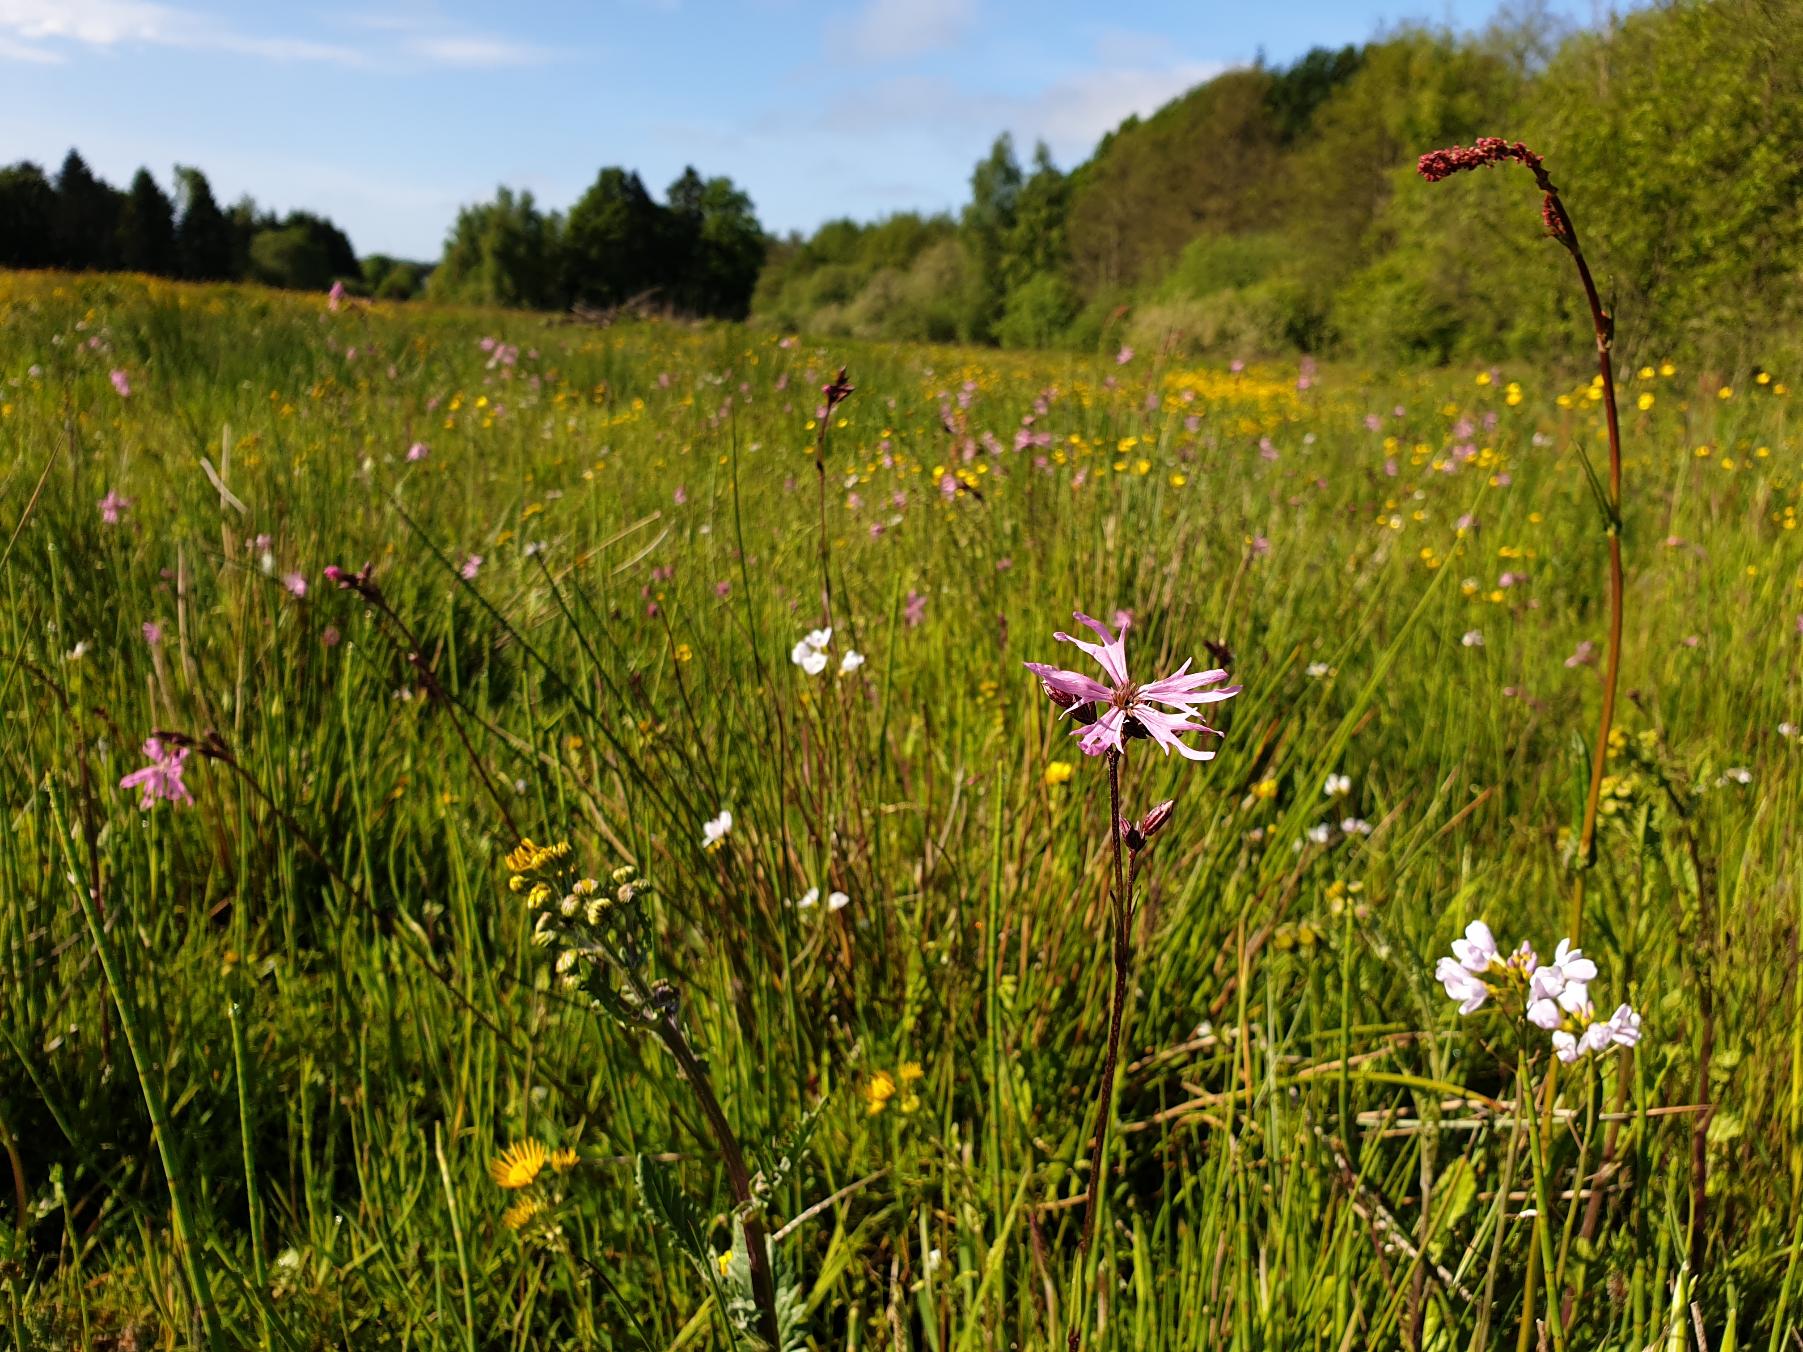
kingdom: Plantae
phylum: Tracheophyta
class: Magnoliopsida
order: Caryophyllales
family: Caryophyllaceae
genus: Silene
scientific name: Silene flos-cuculi
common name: Trævlekrone
